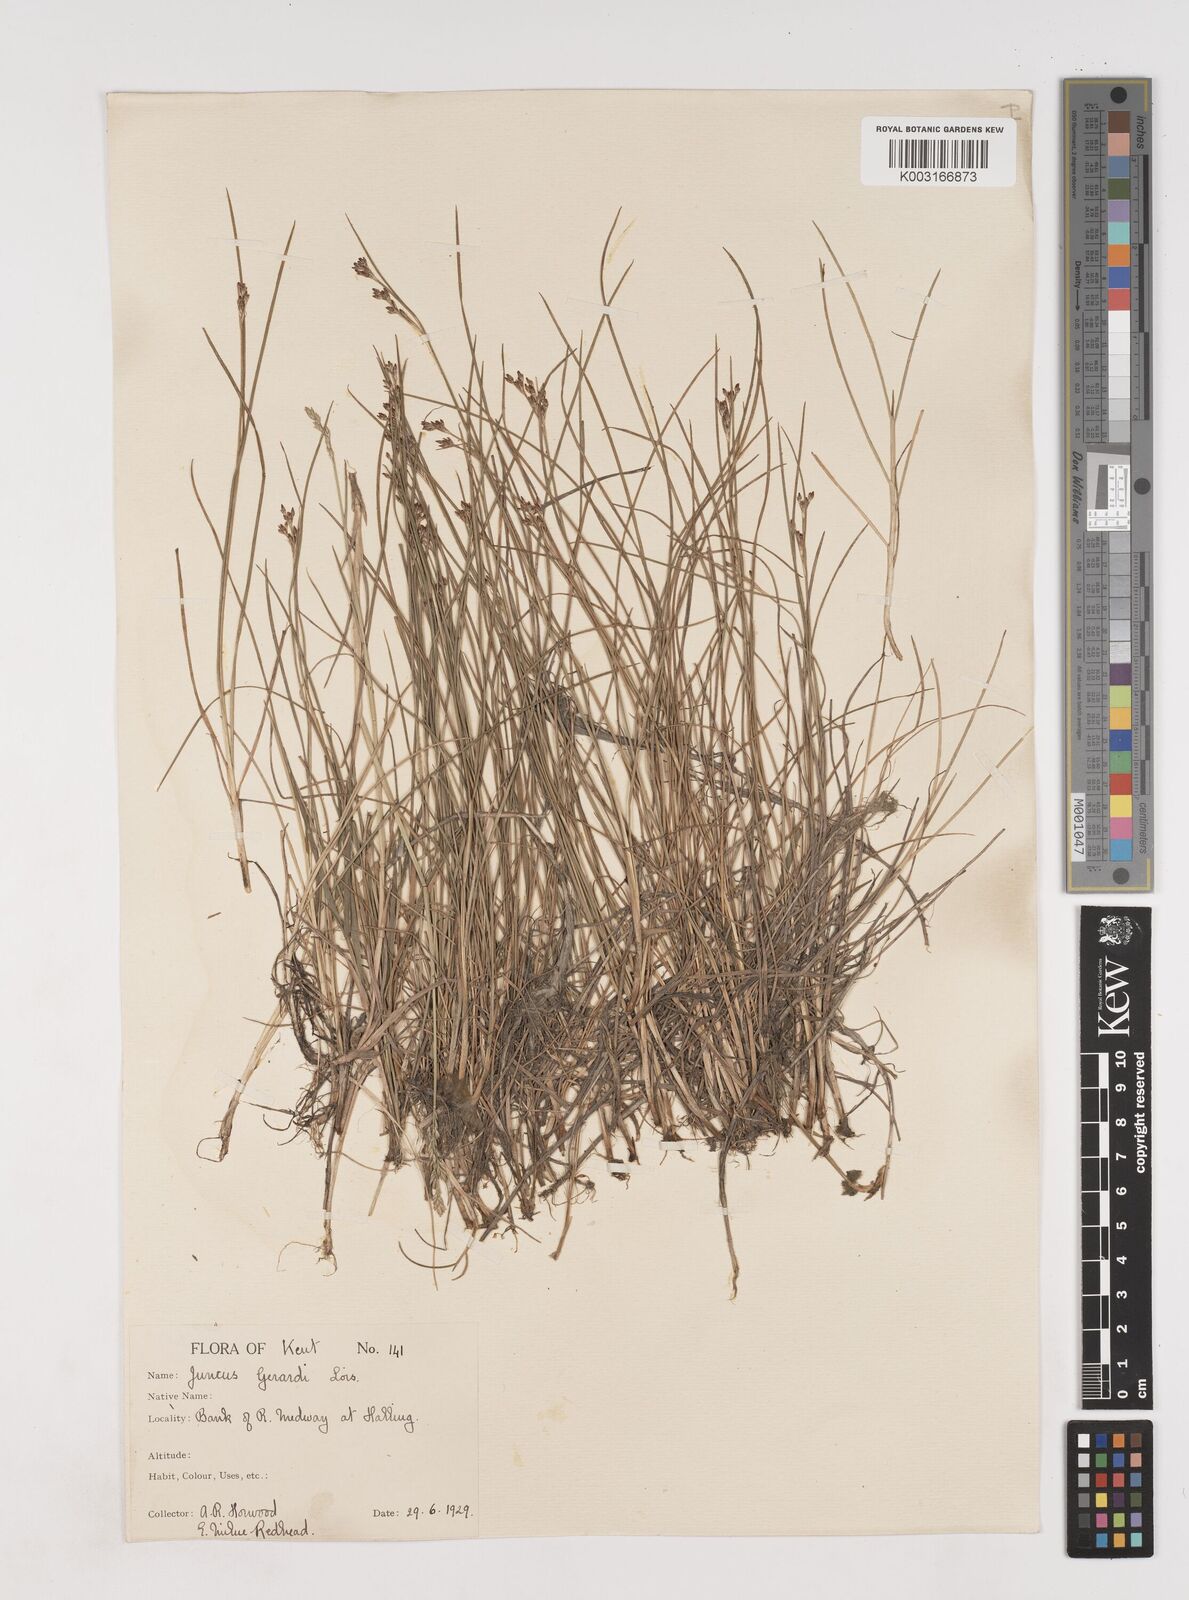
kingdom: Plantae
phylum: Tracheophyta
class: Liliopsida
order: Poales
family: Juncaceae
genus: Juncus
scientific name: Juncus gerardi
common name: Saltmarsh rush
